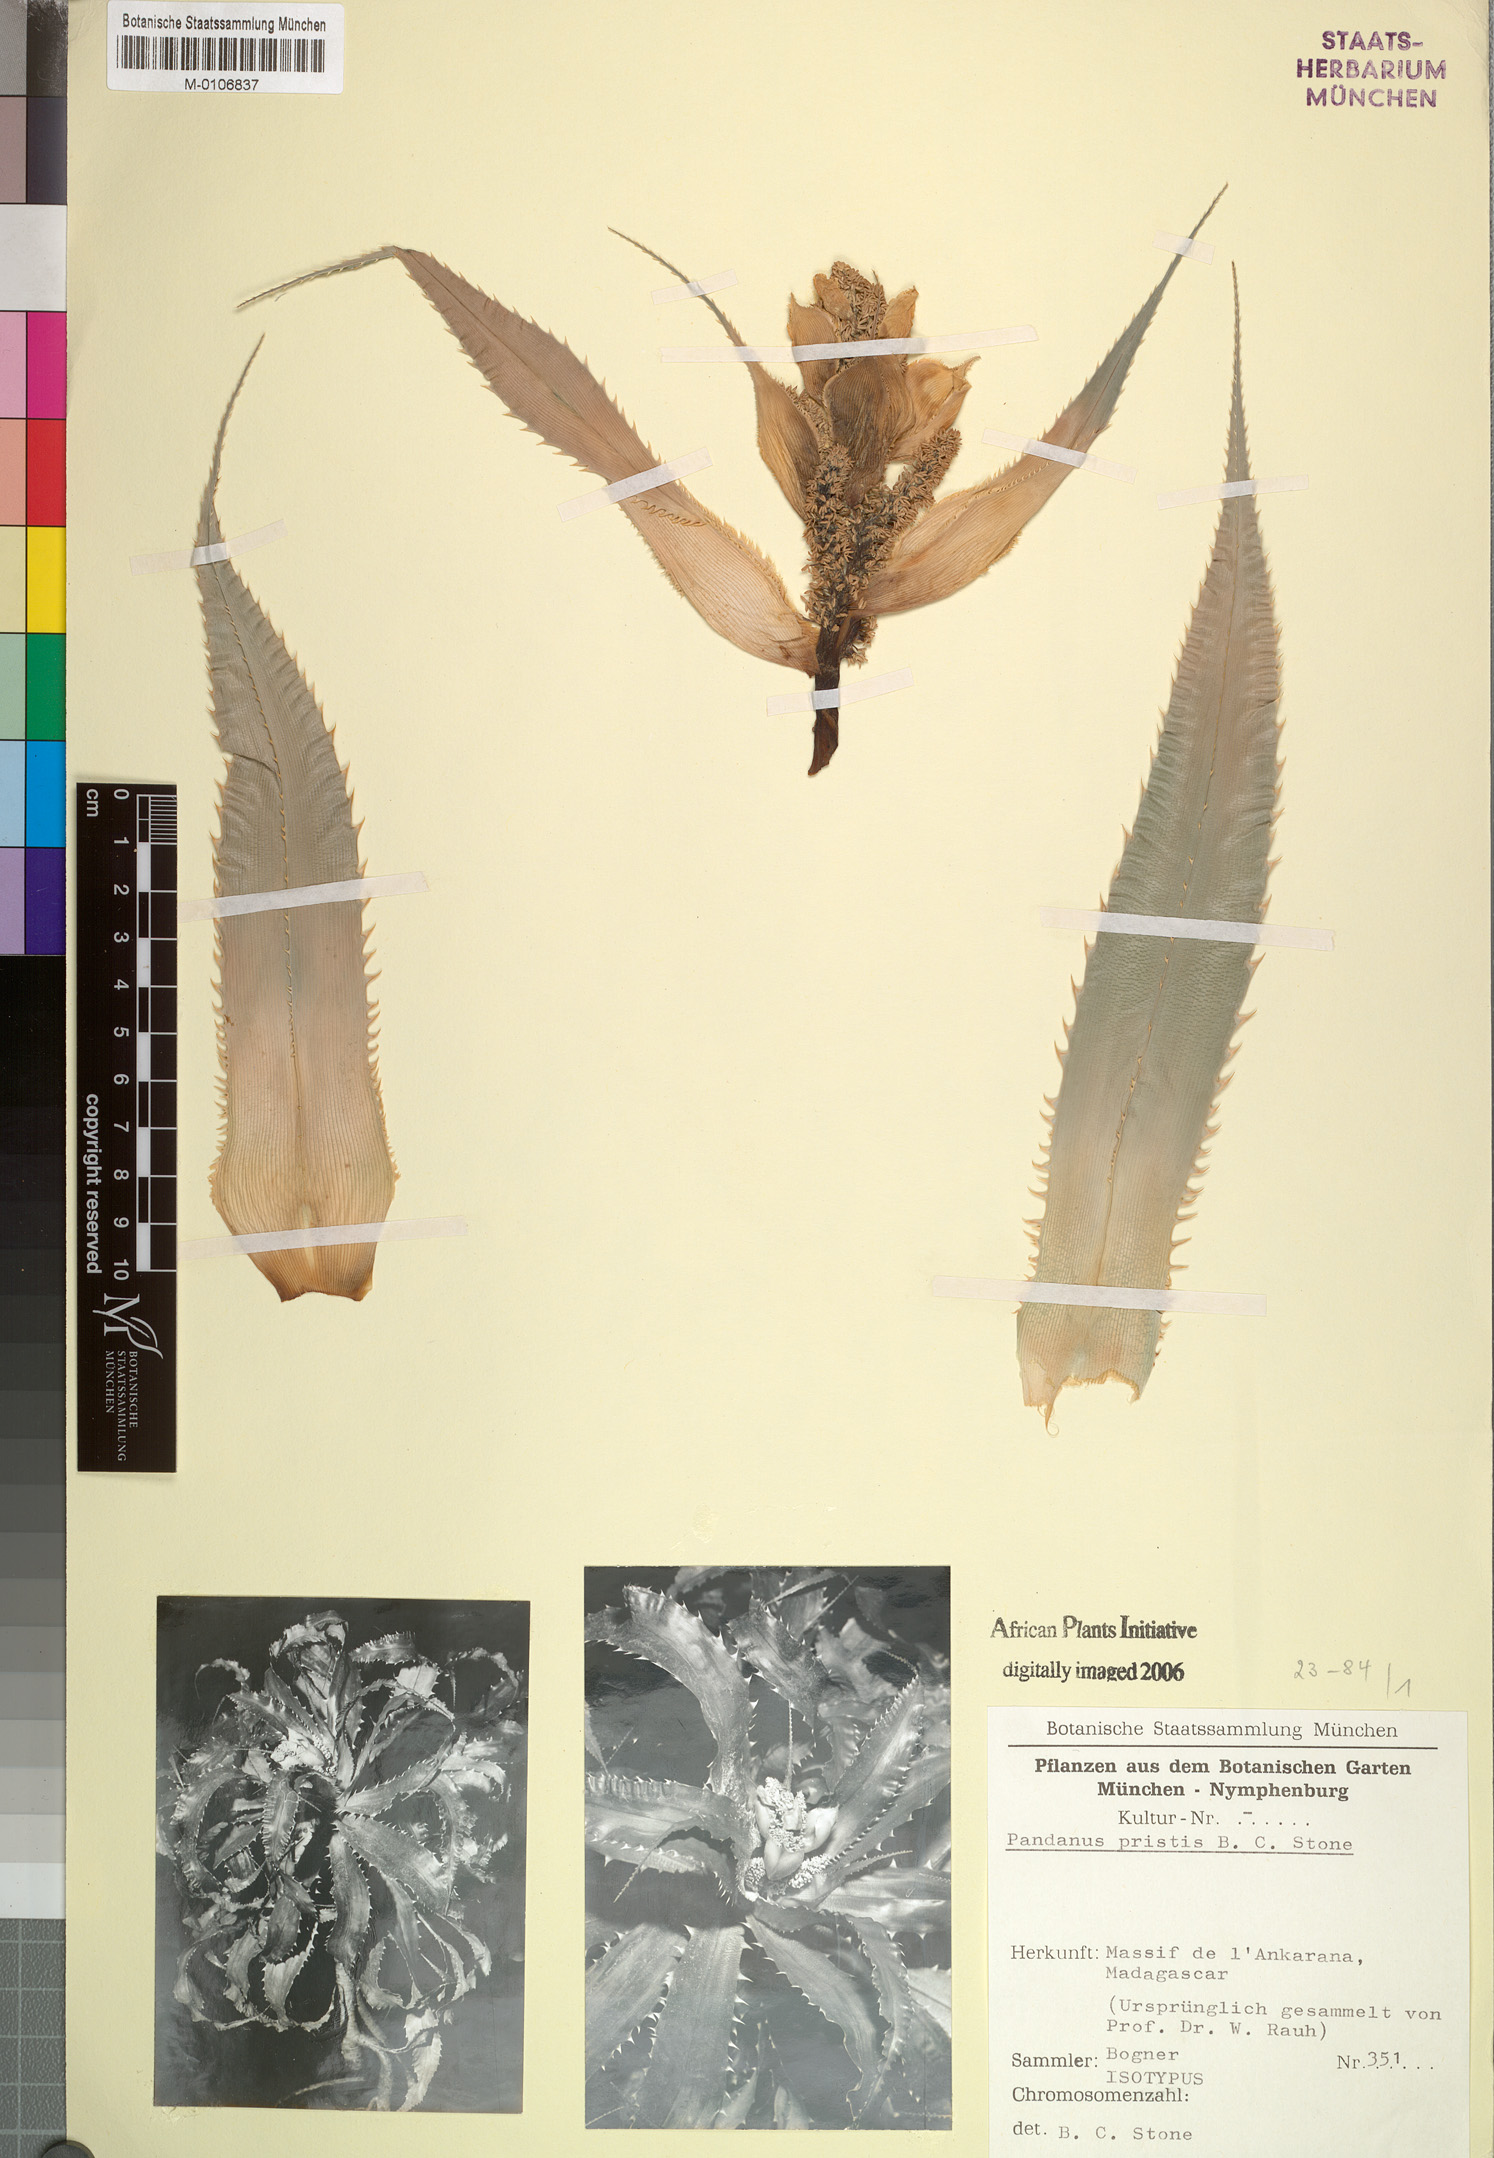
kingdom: Plantae
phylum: Tracheophyta
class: Liliopsida
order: Pandanales
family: Pandanaceae
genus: Pandanus
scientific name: Pandanus pristis
